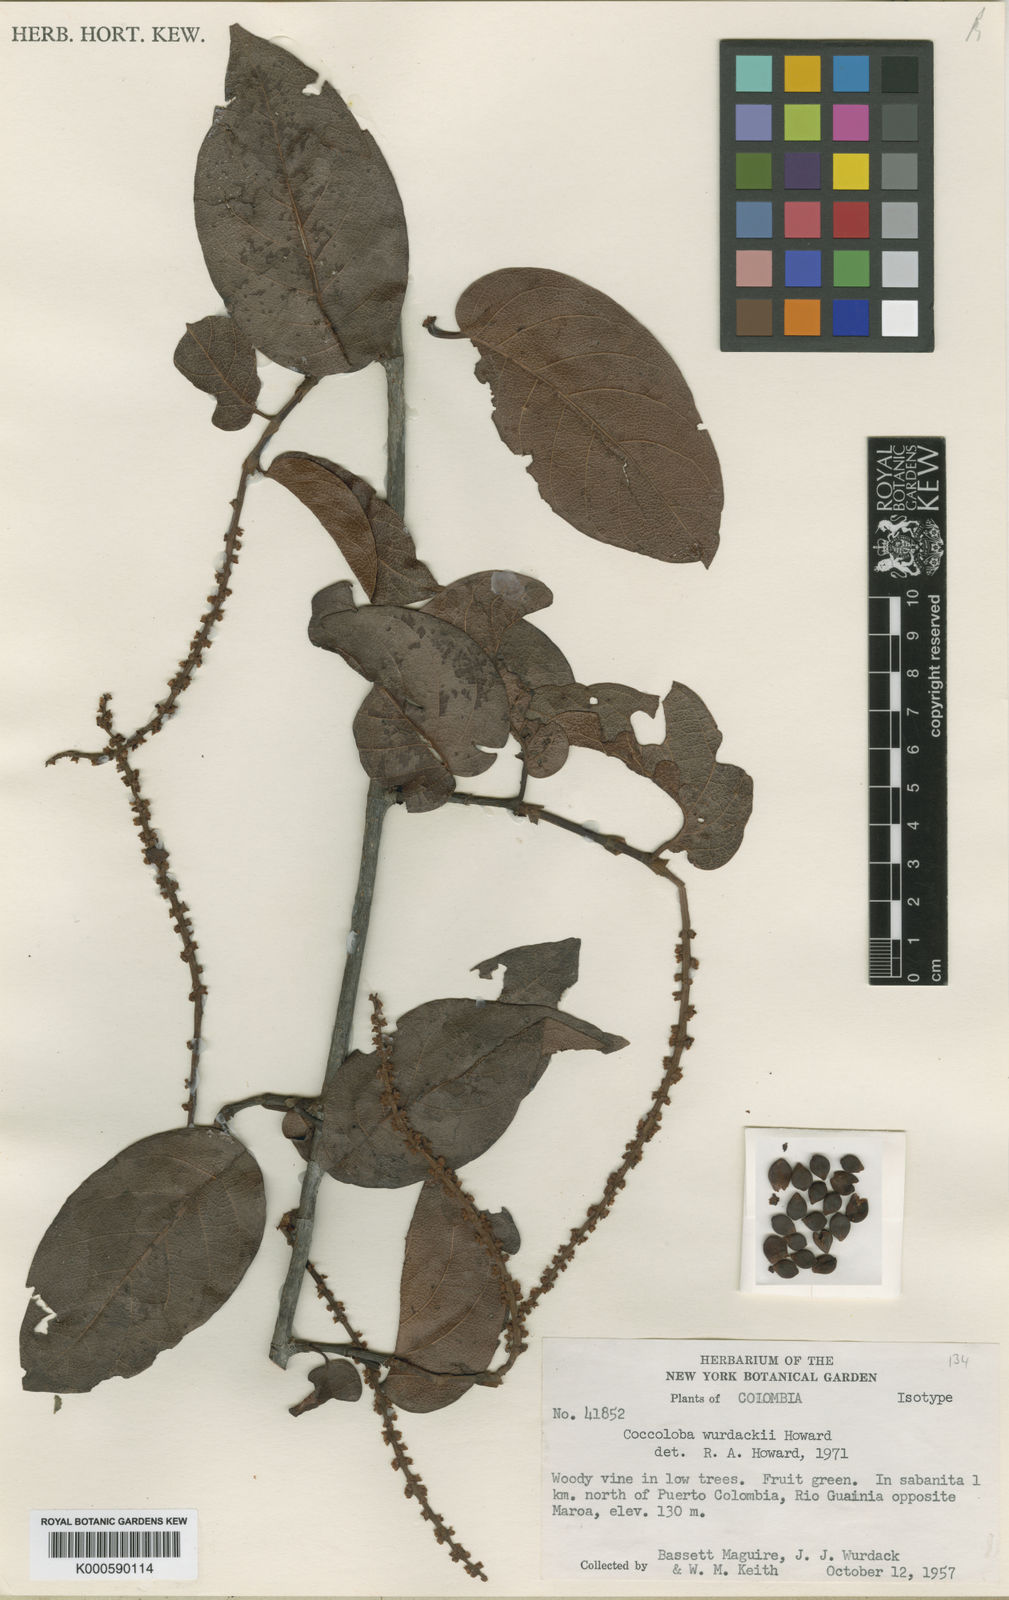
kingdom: Plantae
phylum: Tracheophyta
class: Magnoliopsida
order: Caryophyllales
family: Polygonaceae
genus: Coccoloba
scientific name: Coccoloba wurdackii
